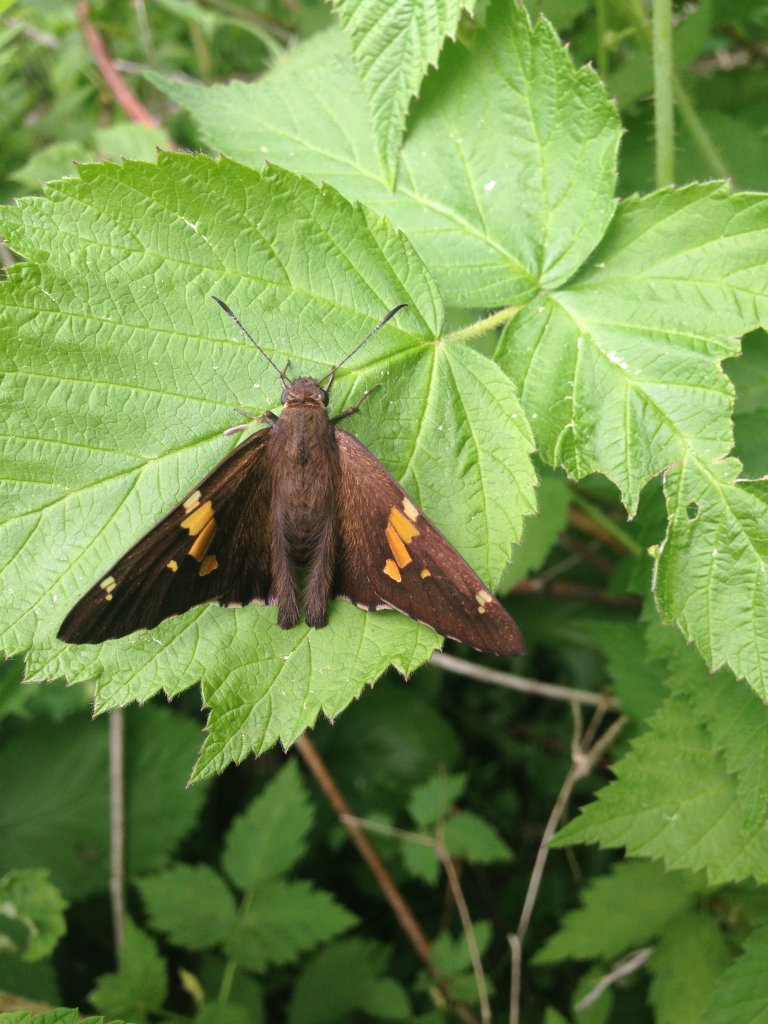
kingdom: Animalia
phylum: Arthropoda
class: Insecta
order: Lepidoptera
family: Hesperiidae
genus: Epargyreus
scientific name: Epargyreus clarus
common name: Silver-spotted Skipper
